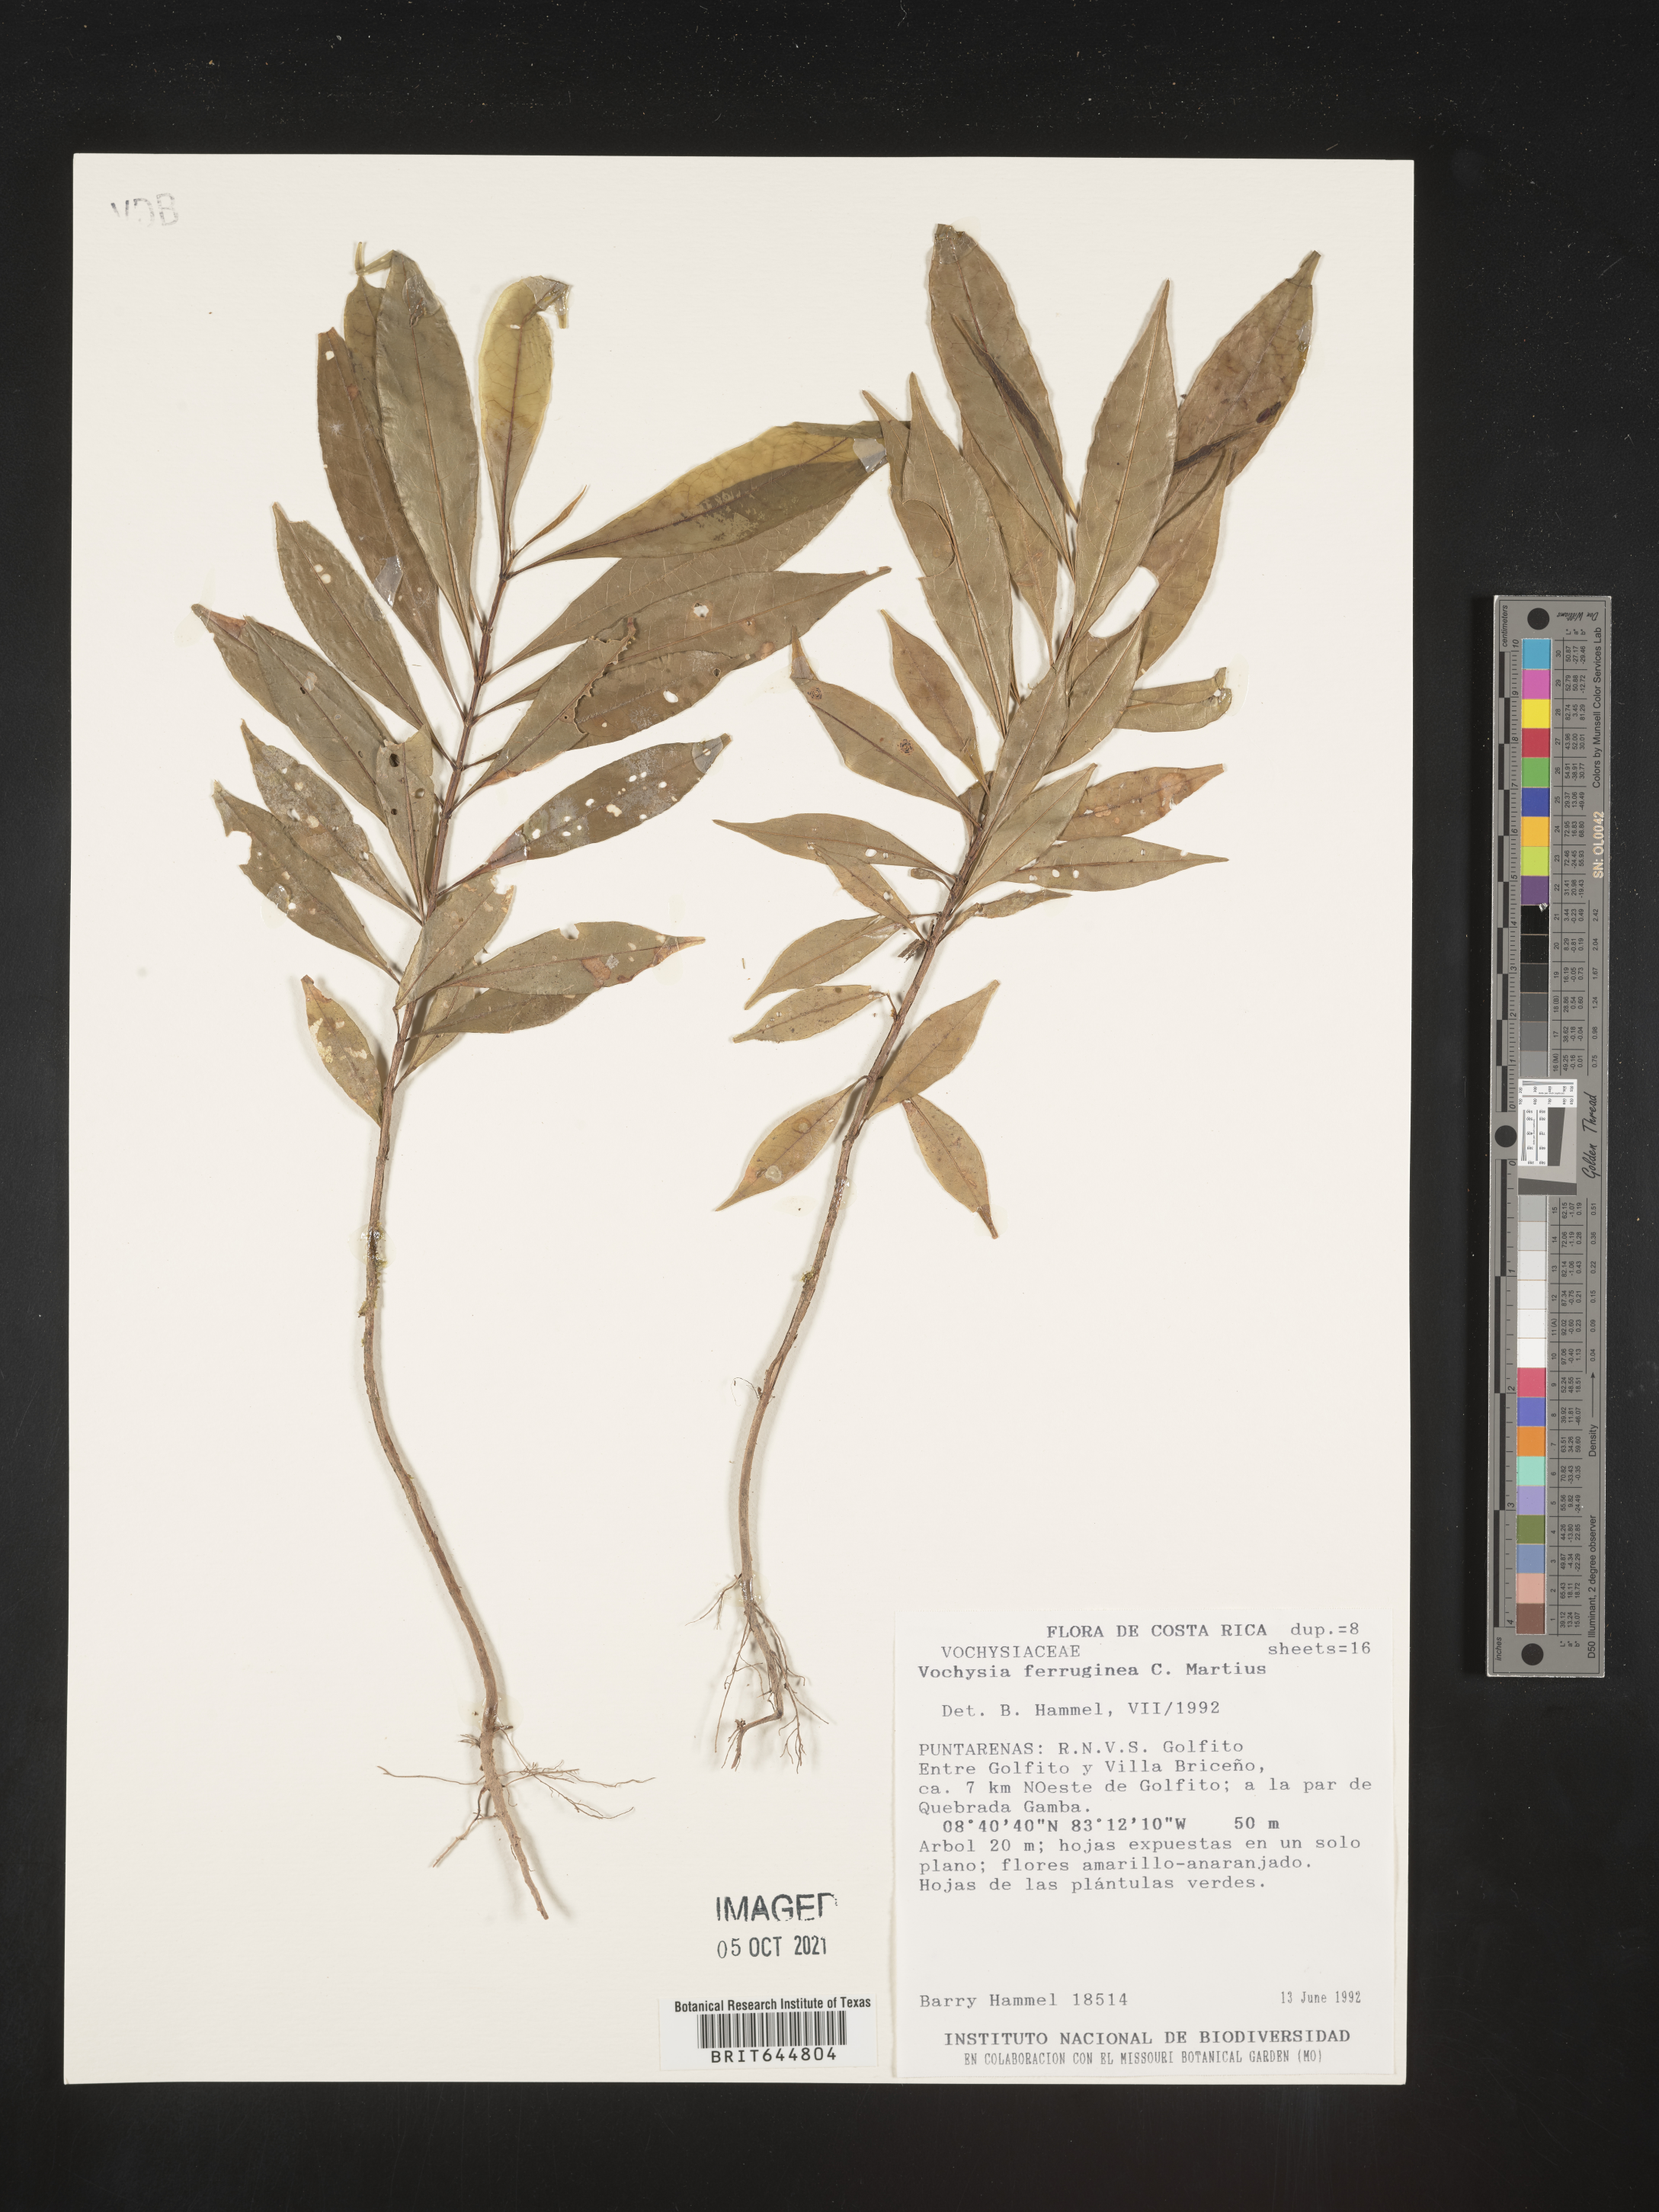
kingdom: Plantae
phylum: Tracheophyta
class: Magnoliopsida
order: Myrtales
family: Vochysiaceae
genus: Vochysia
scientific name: Vochysia
